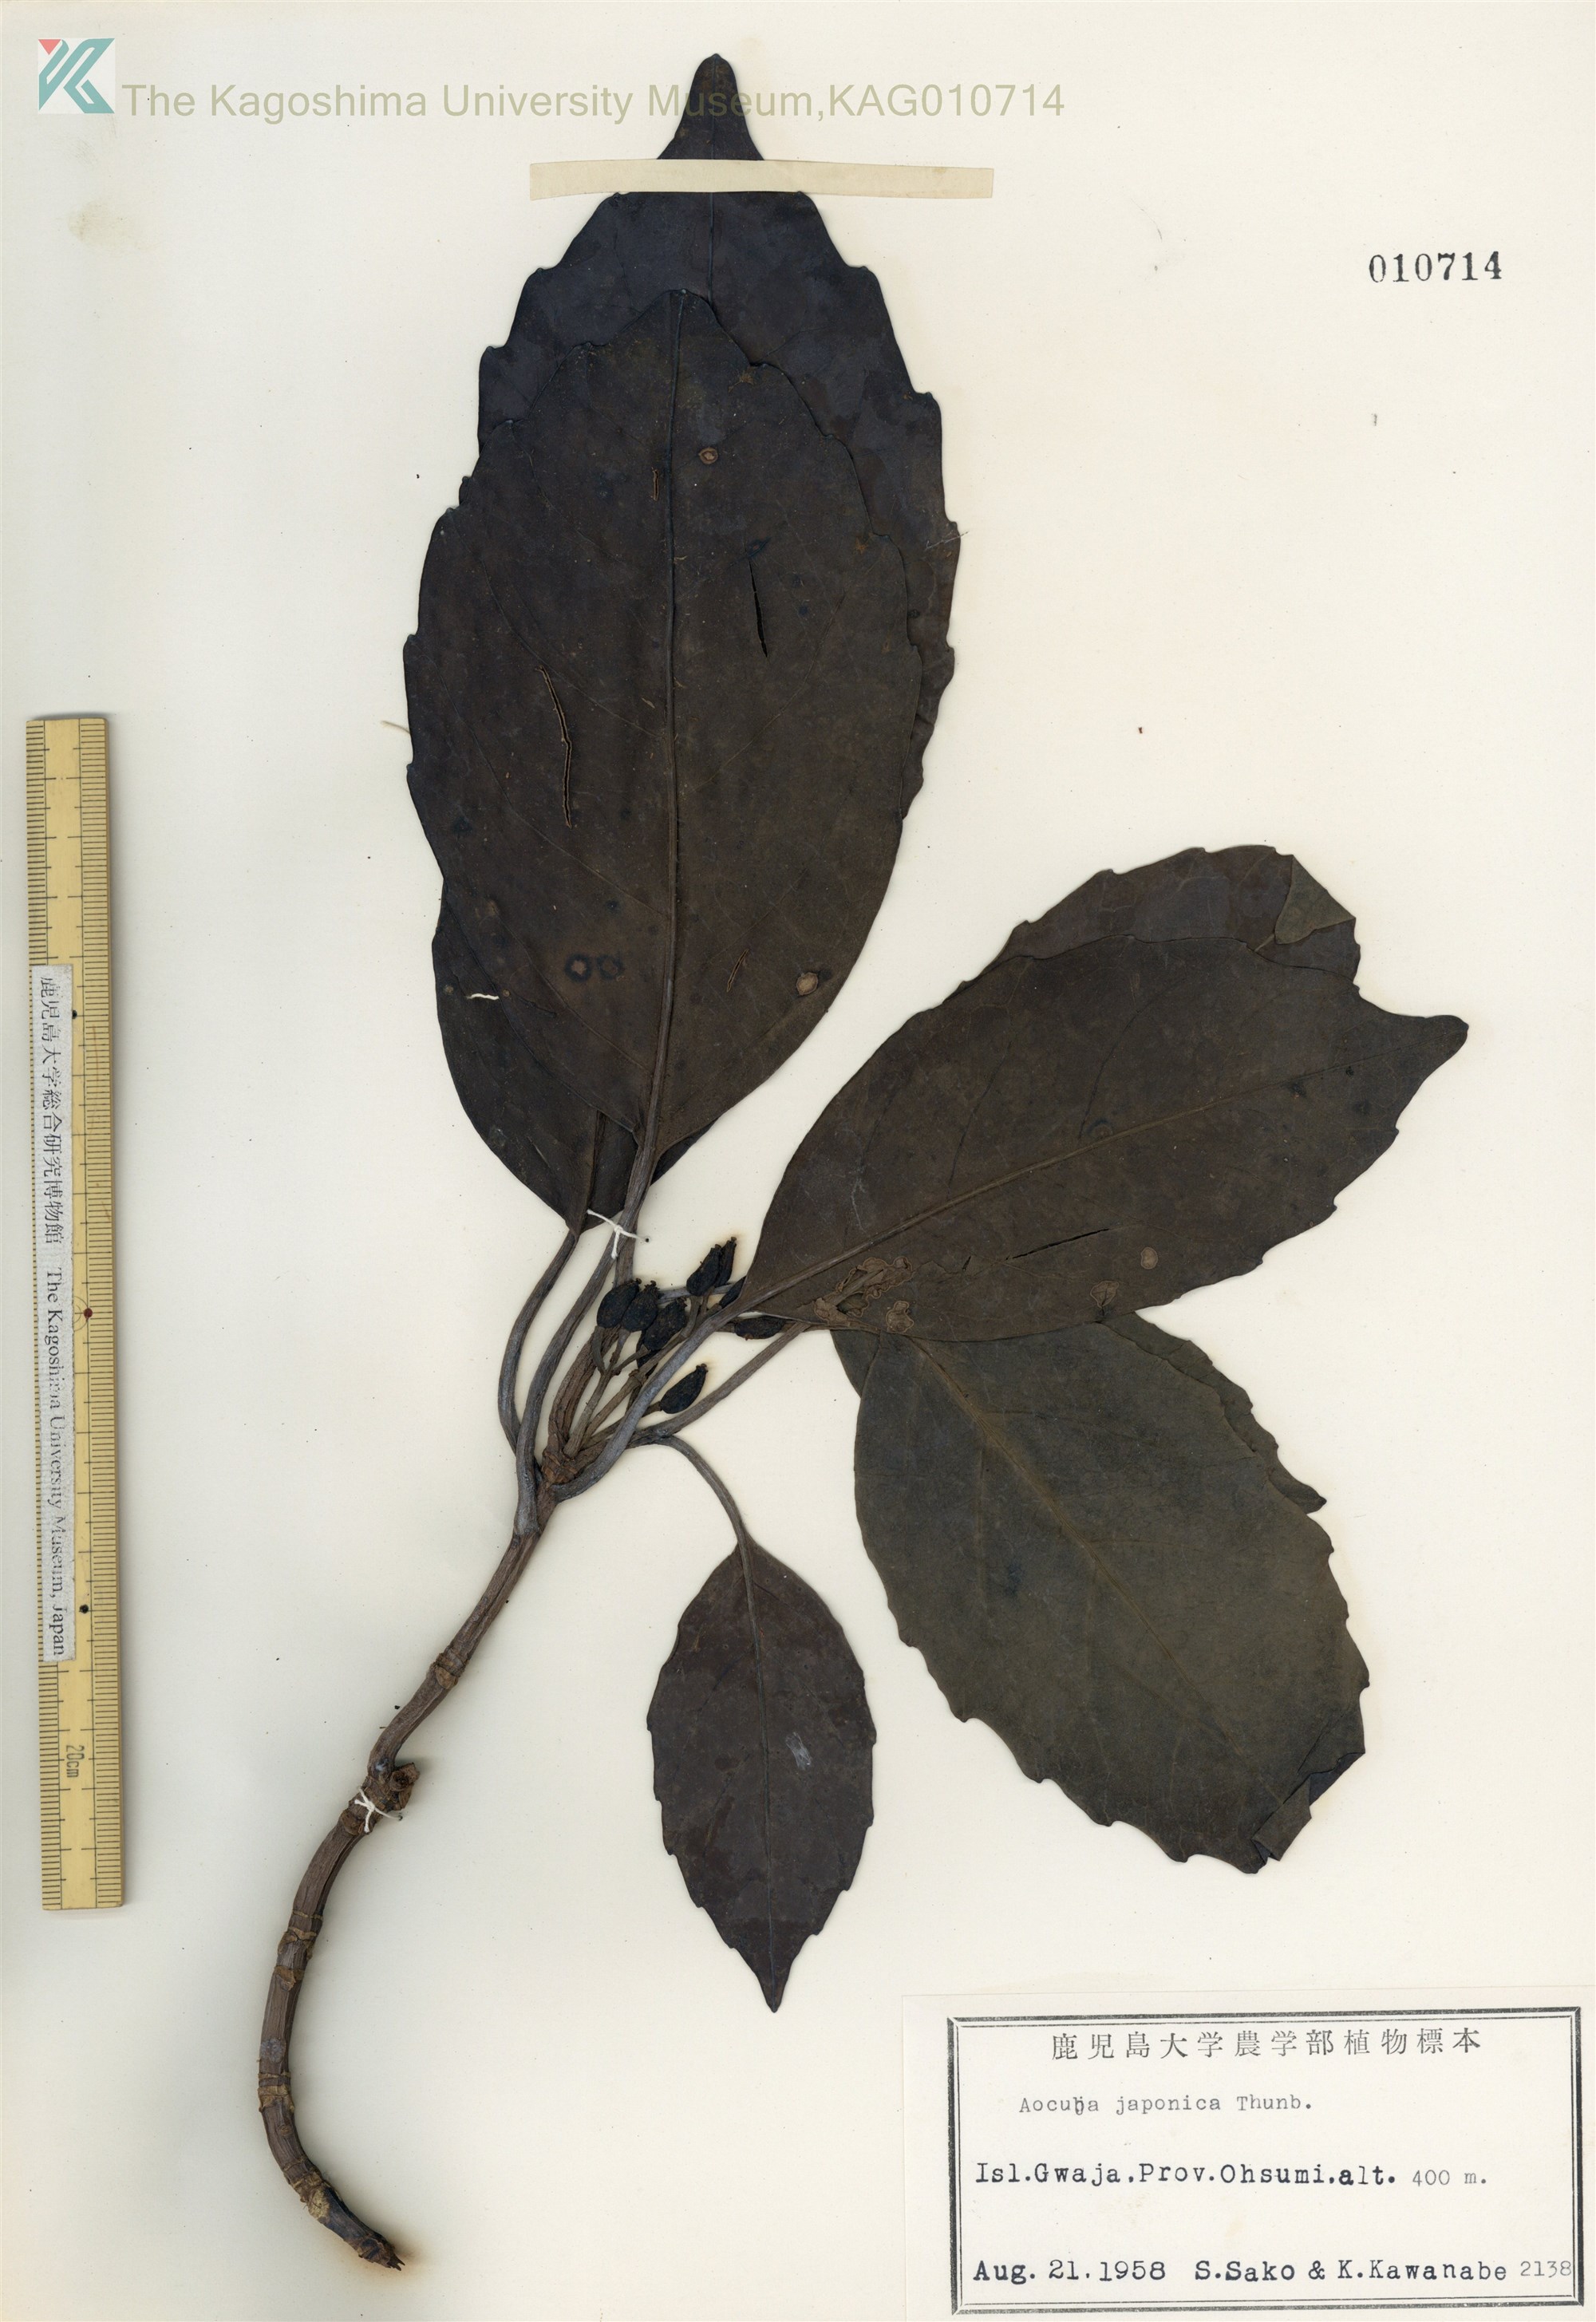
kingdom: Plantae
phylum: Tracheophyta
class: Magnoliopsida
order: Garryales
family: Garryaceae
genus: Aucuba
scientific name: Aucuba japonica
